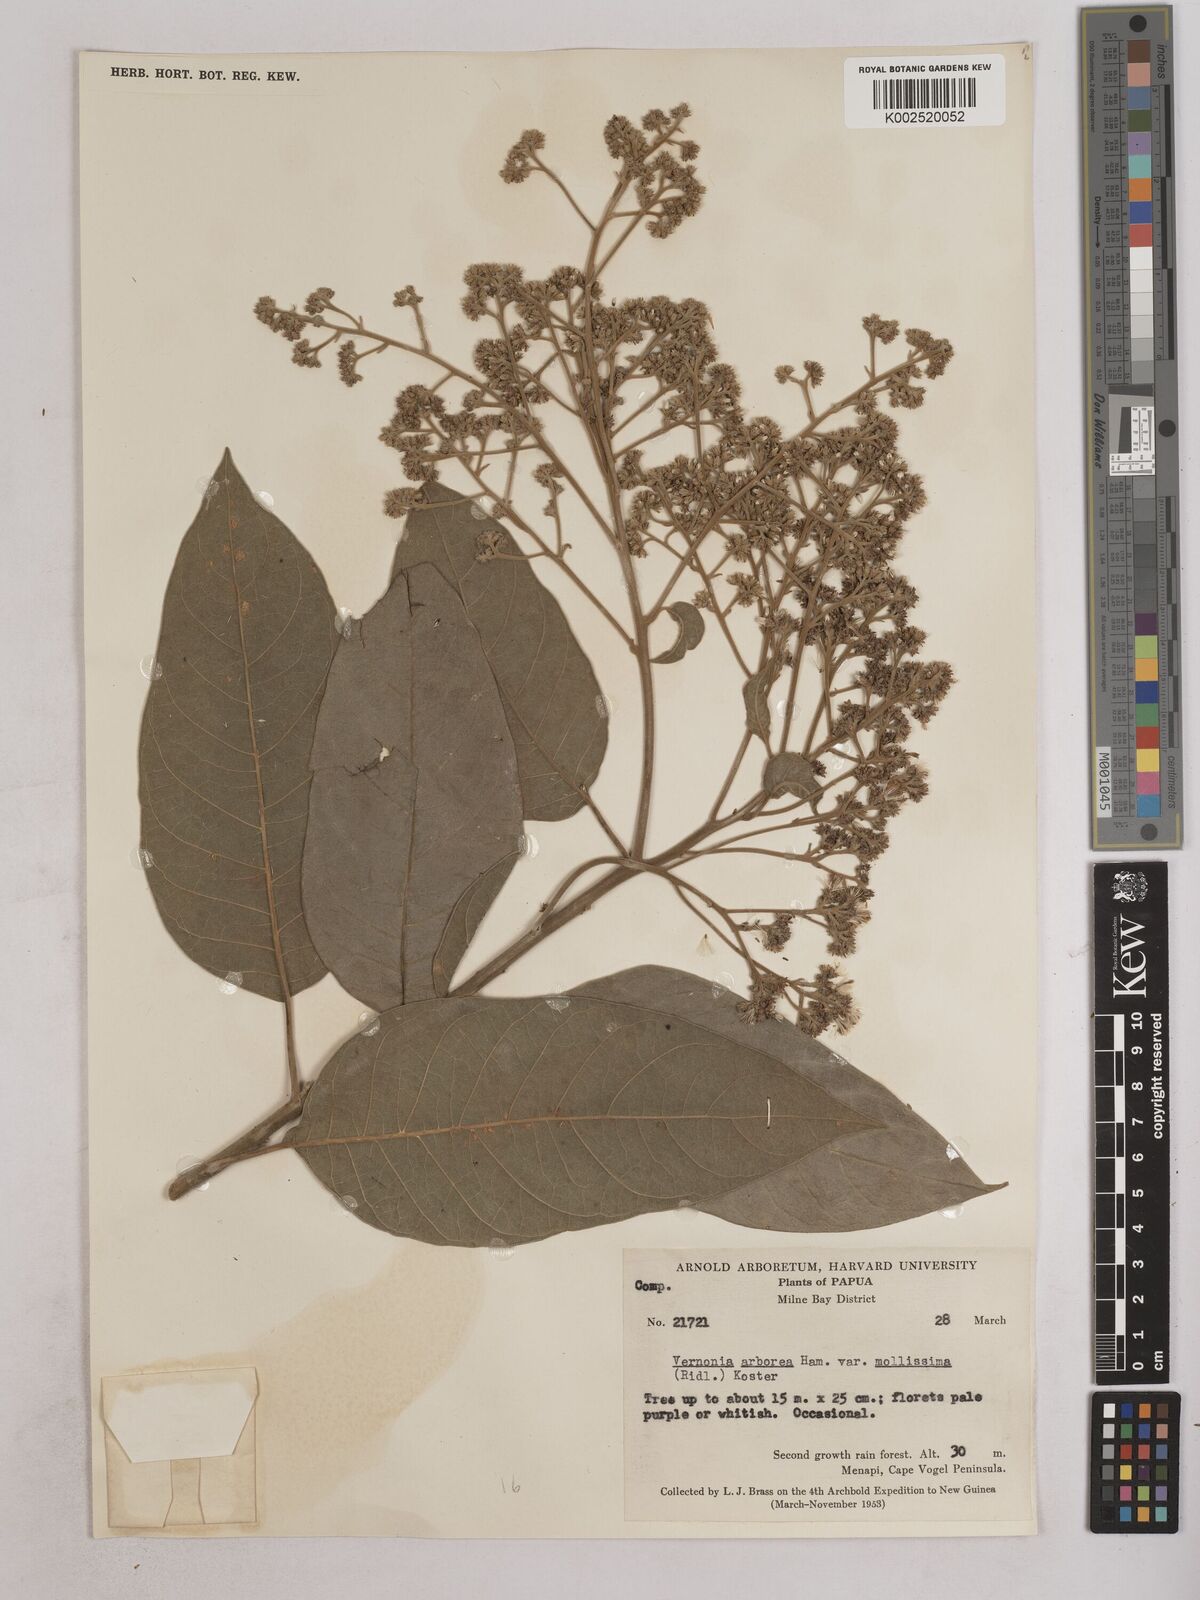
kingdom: Plantae
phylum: Tracheophyta
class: Magnoliopsida
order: Asterales
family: Asteraceae
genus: Strobocalyx
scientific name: Strobocalyx arborea
